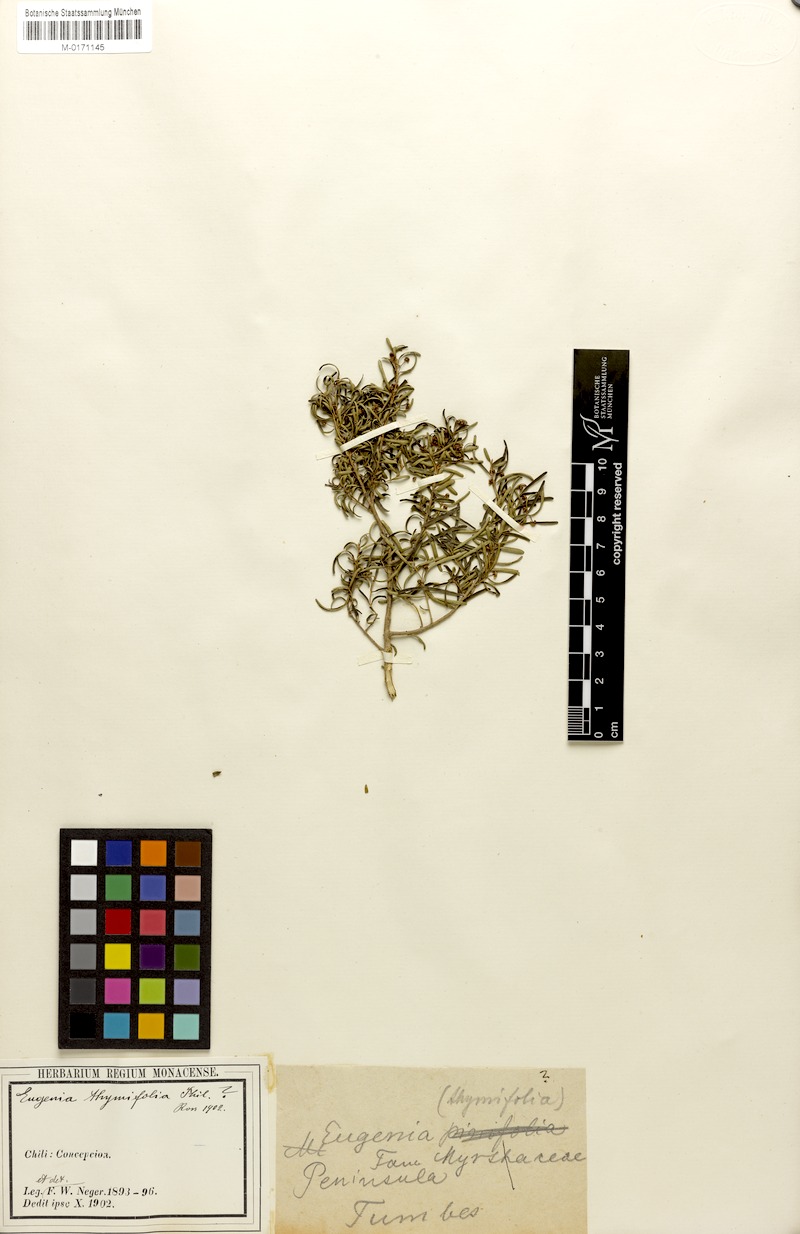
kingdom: Plantae
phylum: Tracheophyta
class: Magnoliopsida
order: Myrtales
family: Myrtaceae
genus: Myrceugenia
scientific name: Myrceugenia leptospermioides
